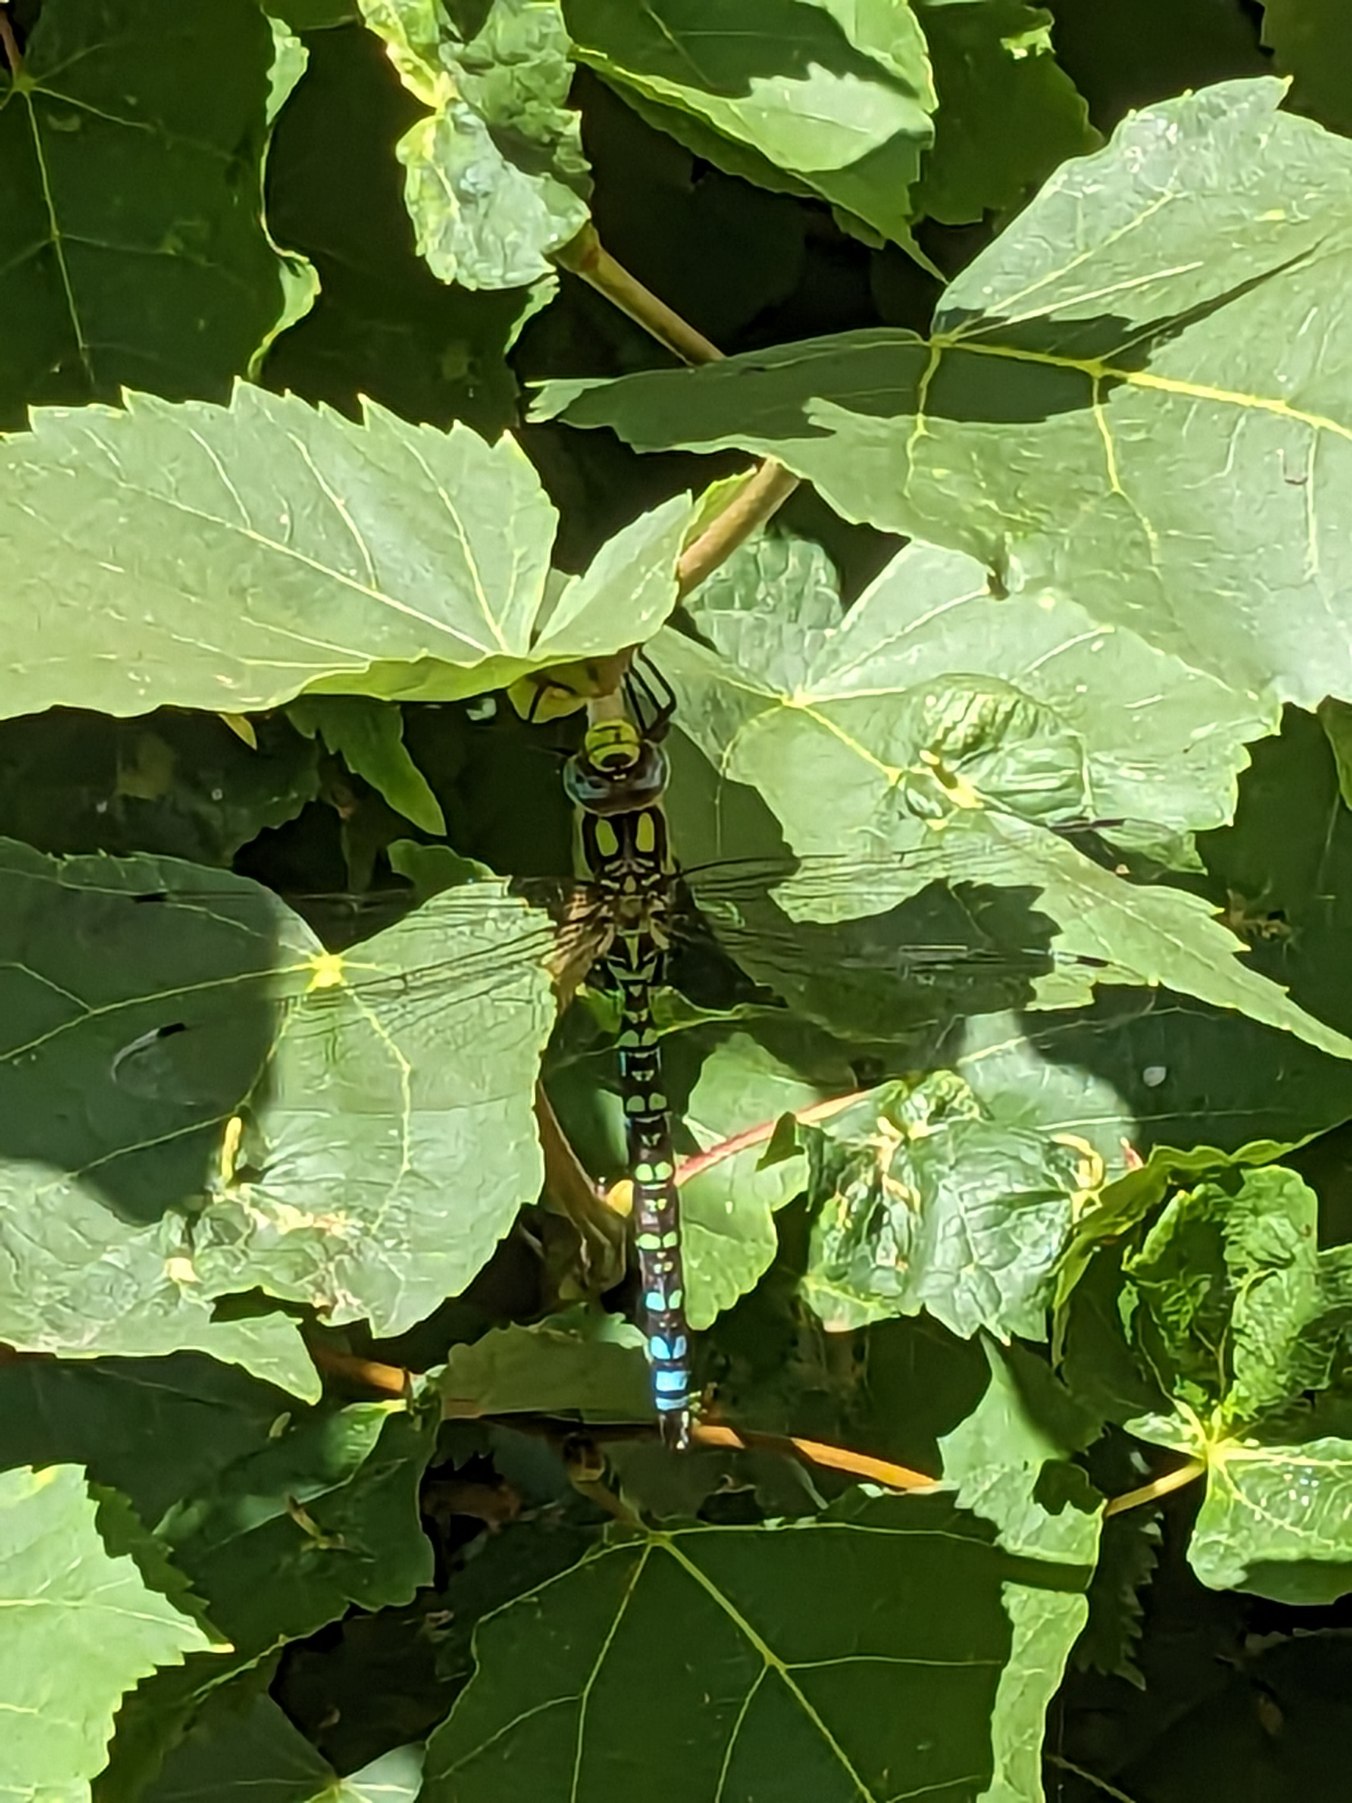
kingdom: Animalia
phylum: Arthropoda
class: Insecta
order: Odonata
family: Aeshnidae
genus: Aeshna
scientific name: Aeshna cyanea
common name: Blå mosaikguldsmed
